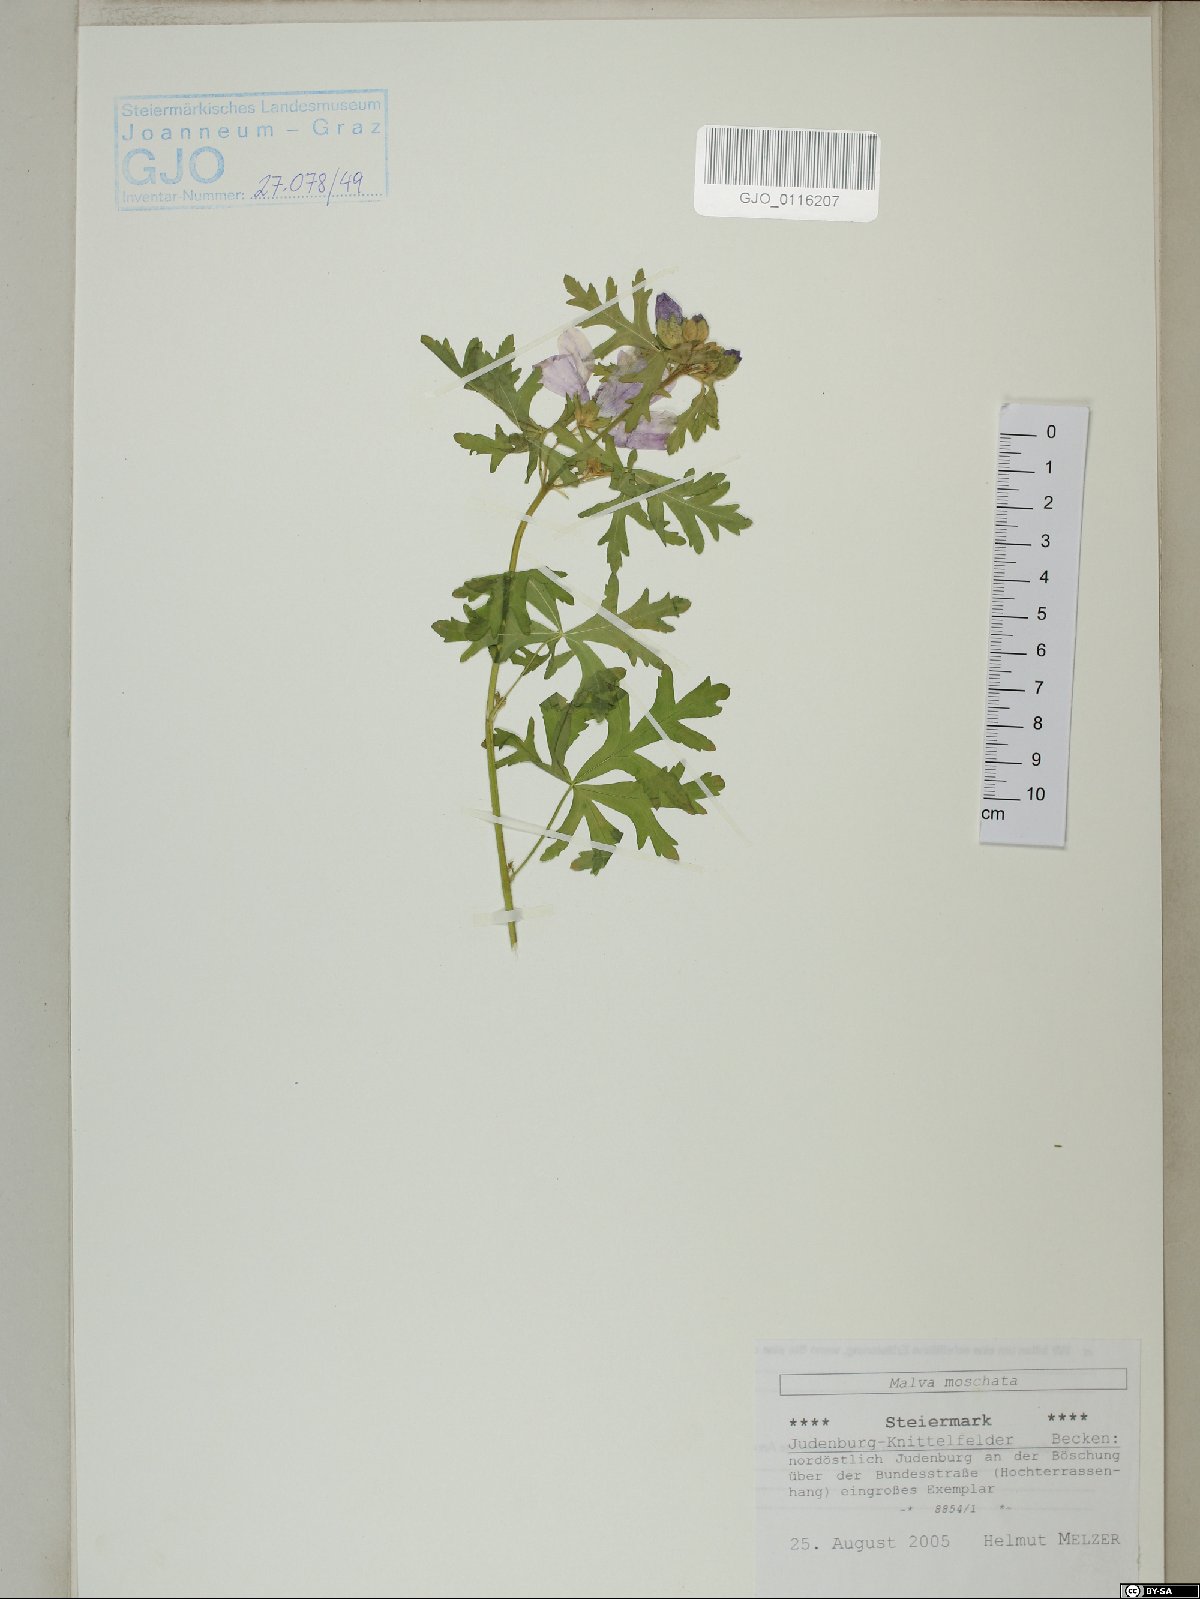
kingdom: Plantae
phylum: Tracheophyta
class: Magnoliopsida
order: Malvales
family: Malvaceae
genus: Malva
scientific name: Malva moschata
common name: Musk mallow
